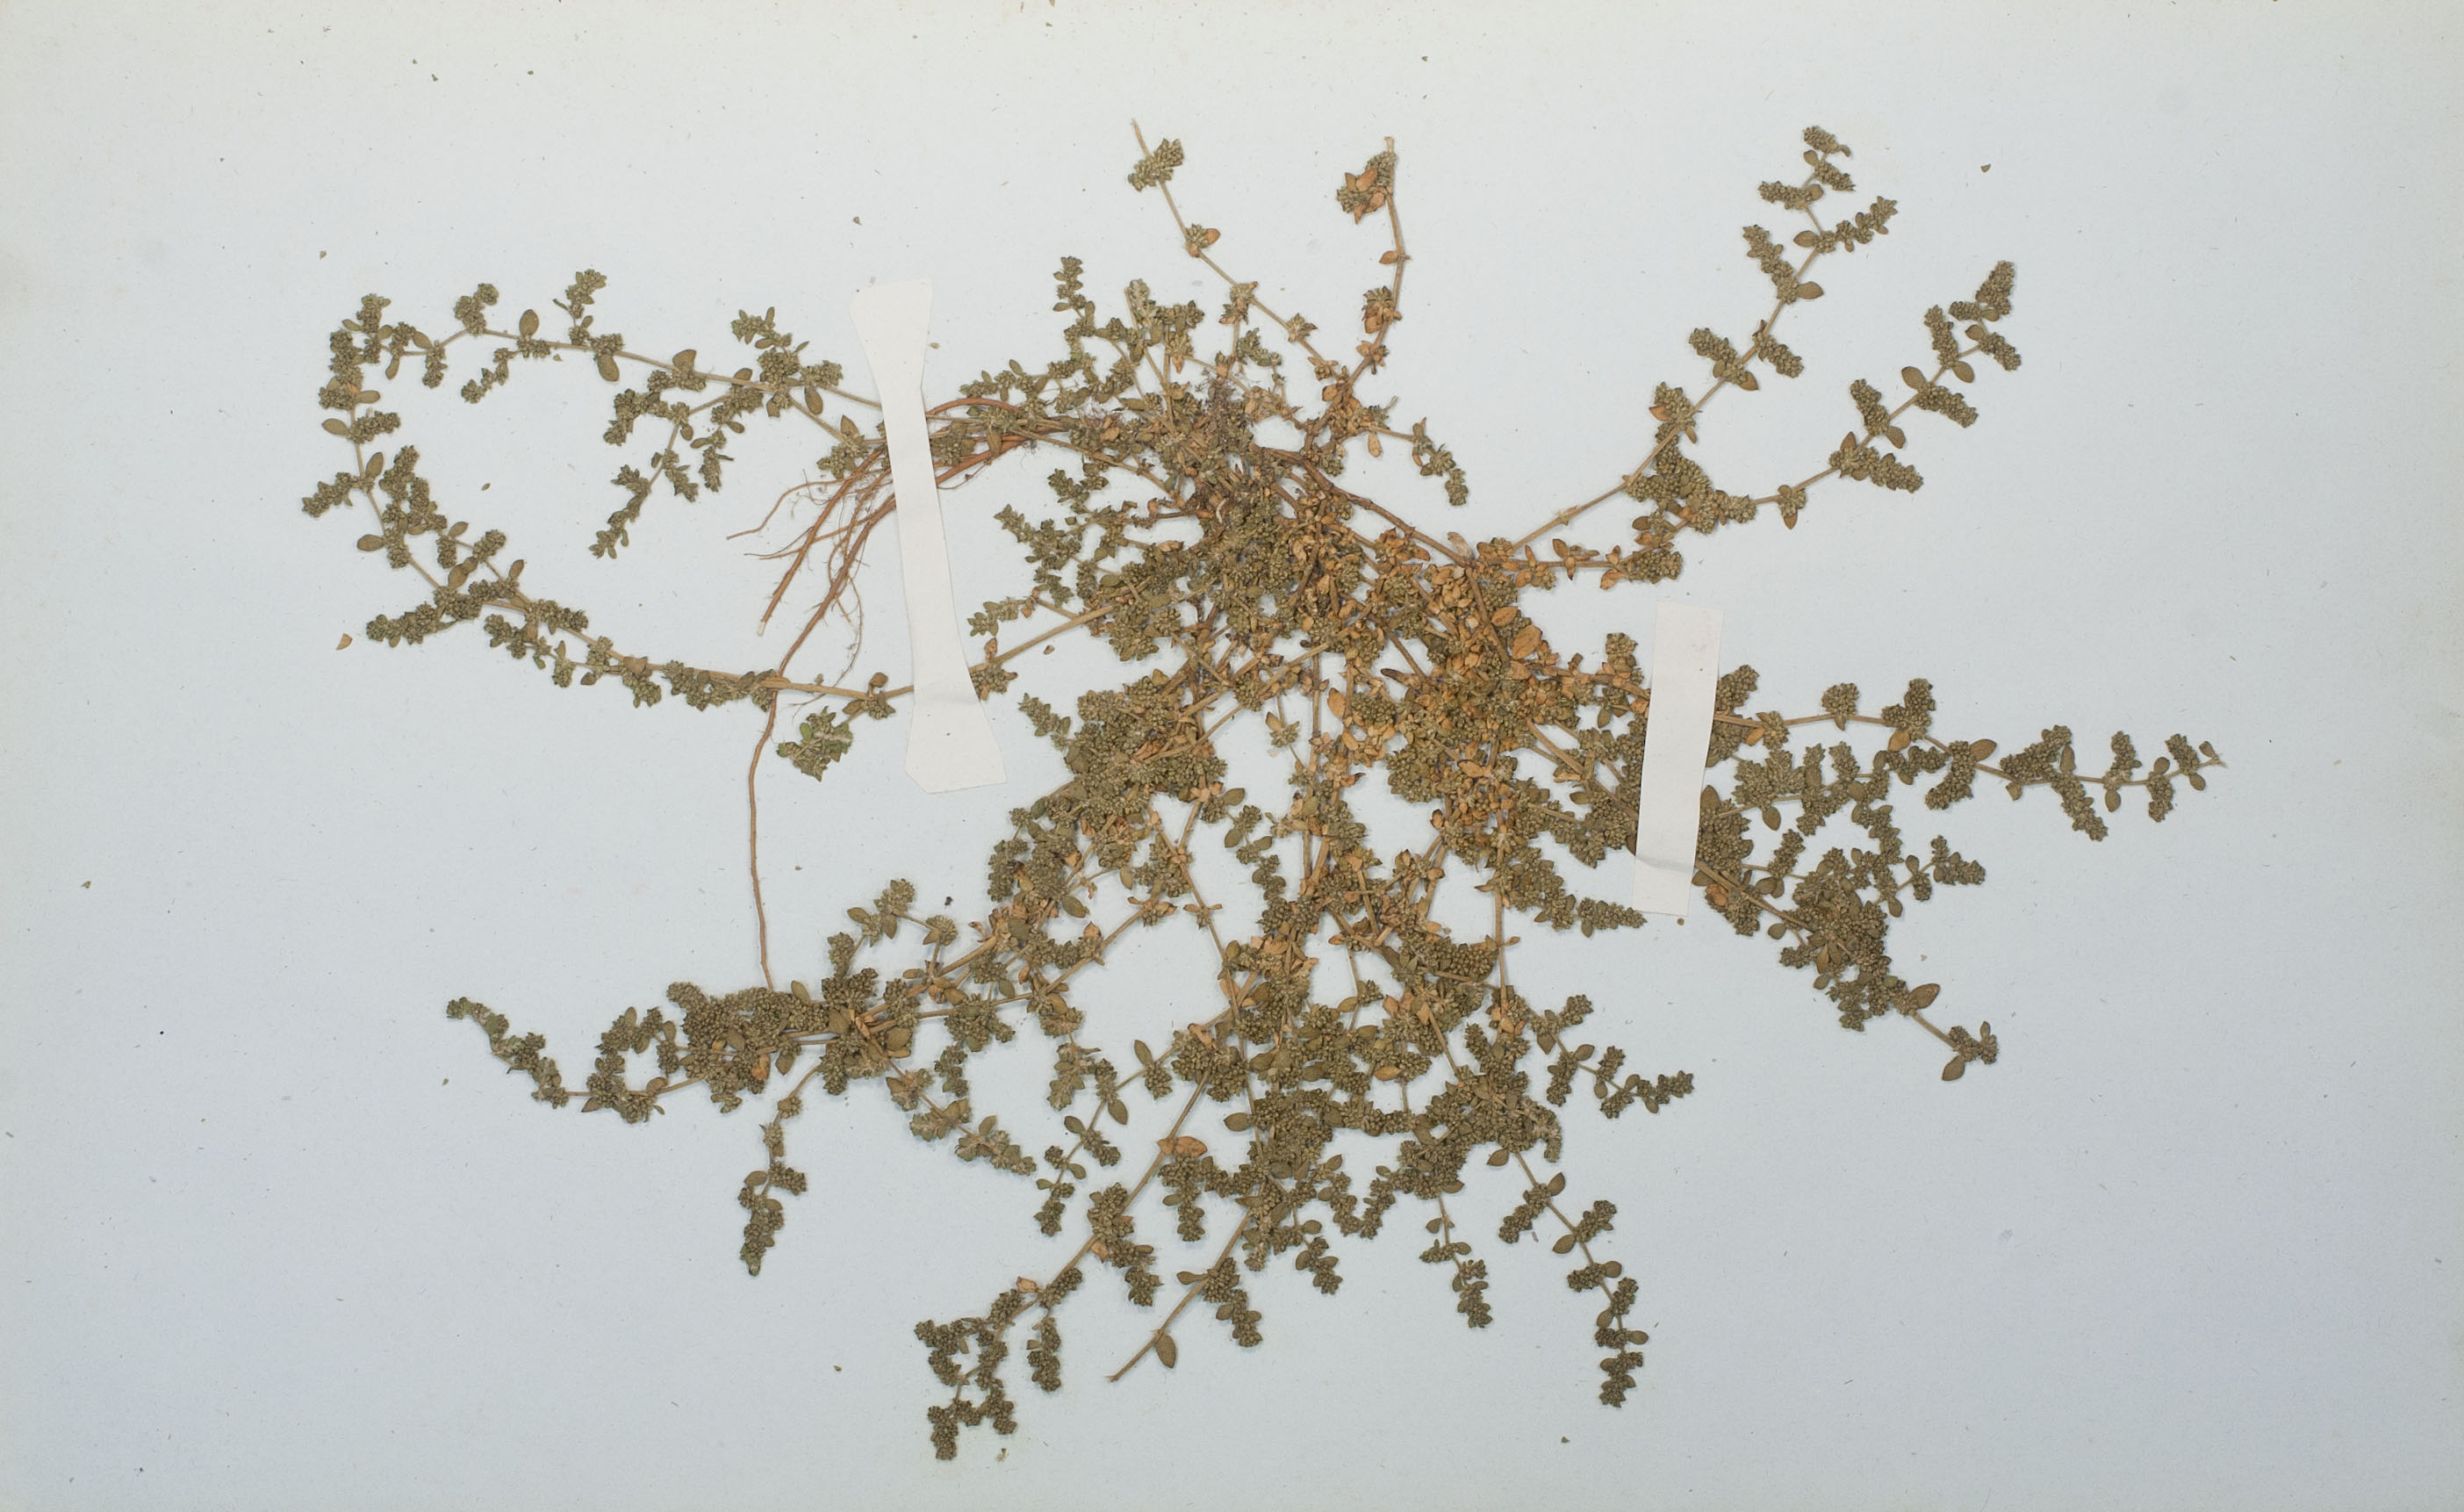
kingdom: Plantae
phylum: Tracheophyta
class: Magnoliopsida
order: Caryophyllales
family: Caryophyllaceae
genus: Herniaria
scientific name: Herniaria glabra
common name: Smooth rupturewort
